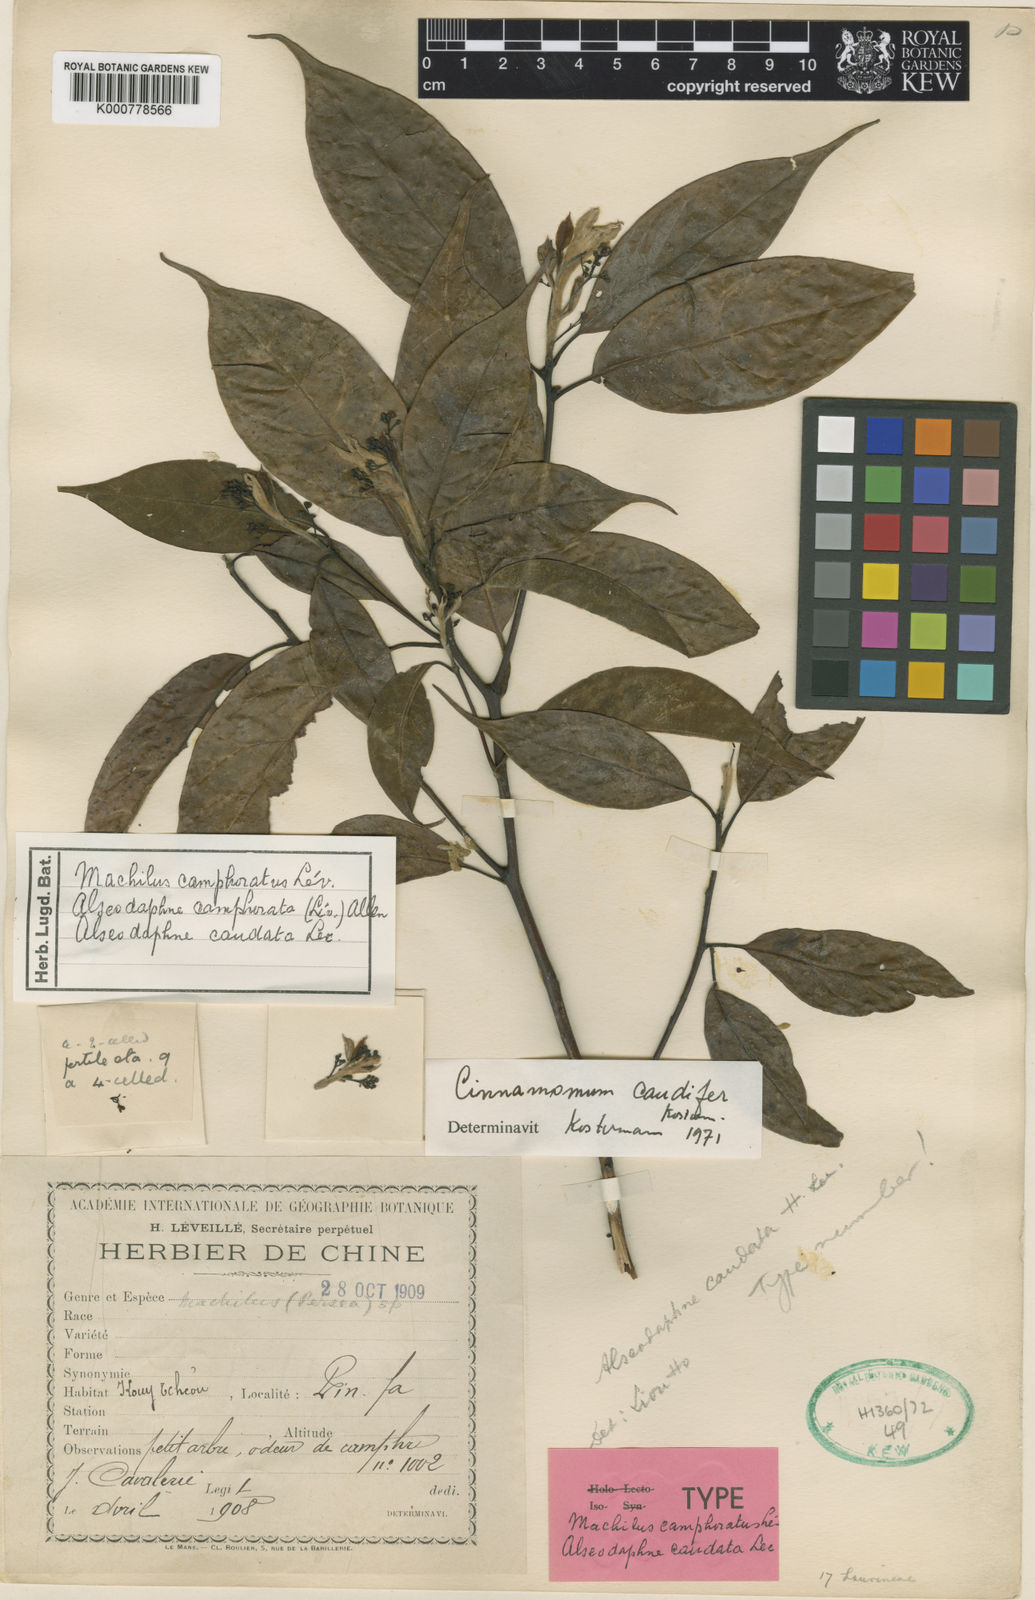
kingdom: Plantae
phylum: Tracheophyta
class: Magnoliopsida
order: Laurales
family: Lauraceae
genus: Cinnamomum
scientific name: Cinnamomum foveolatum
